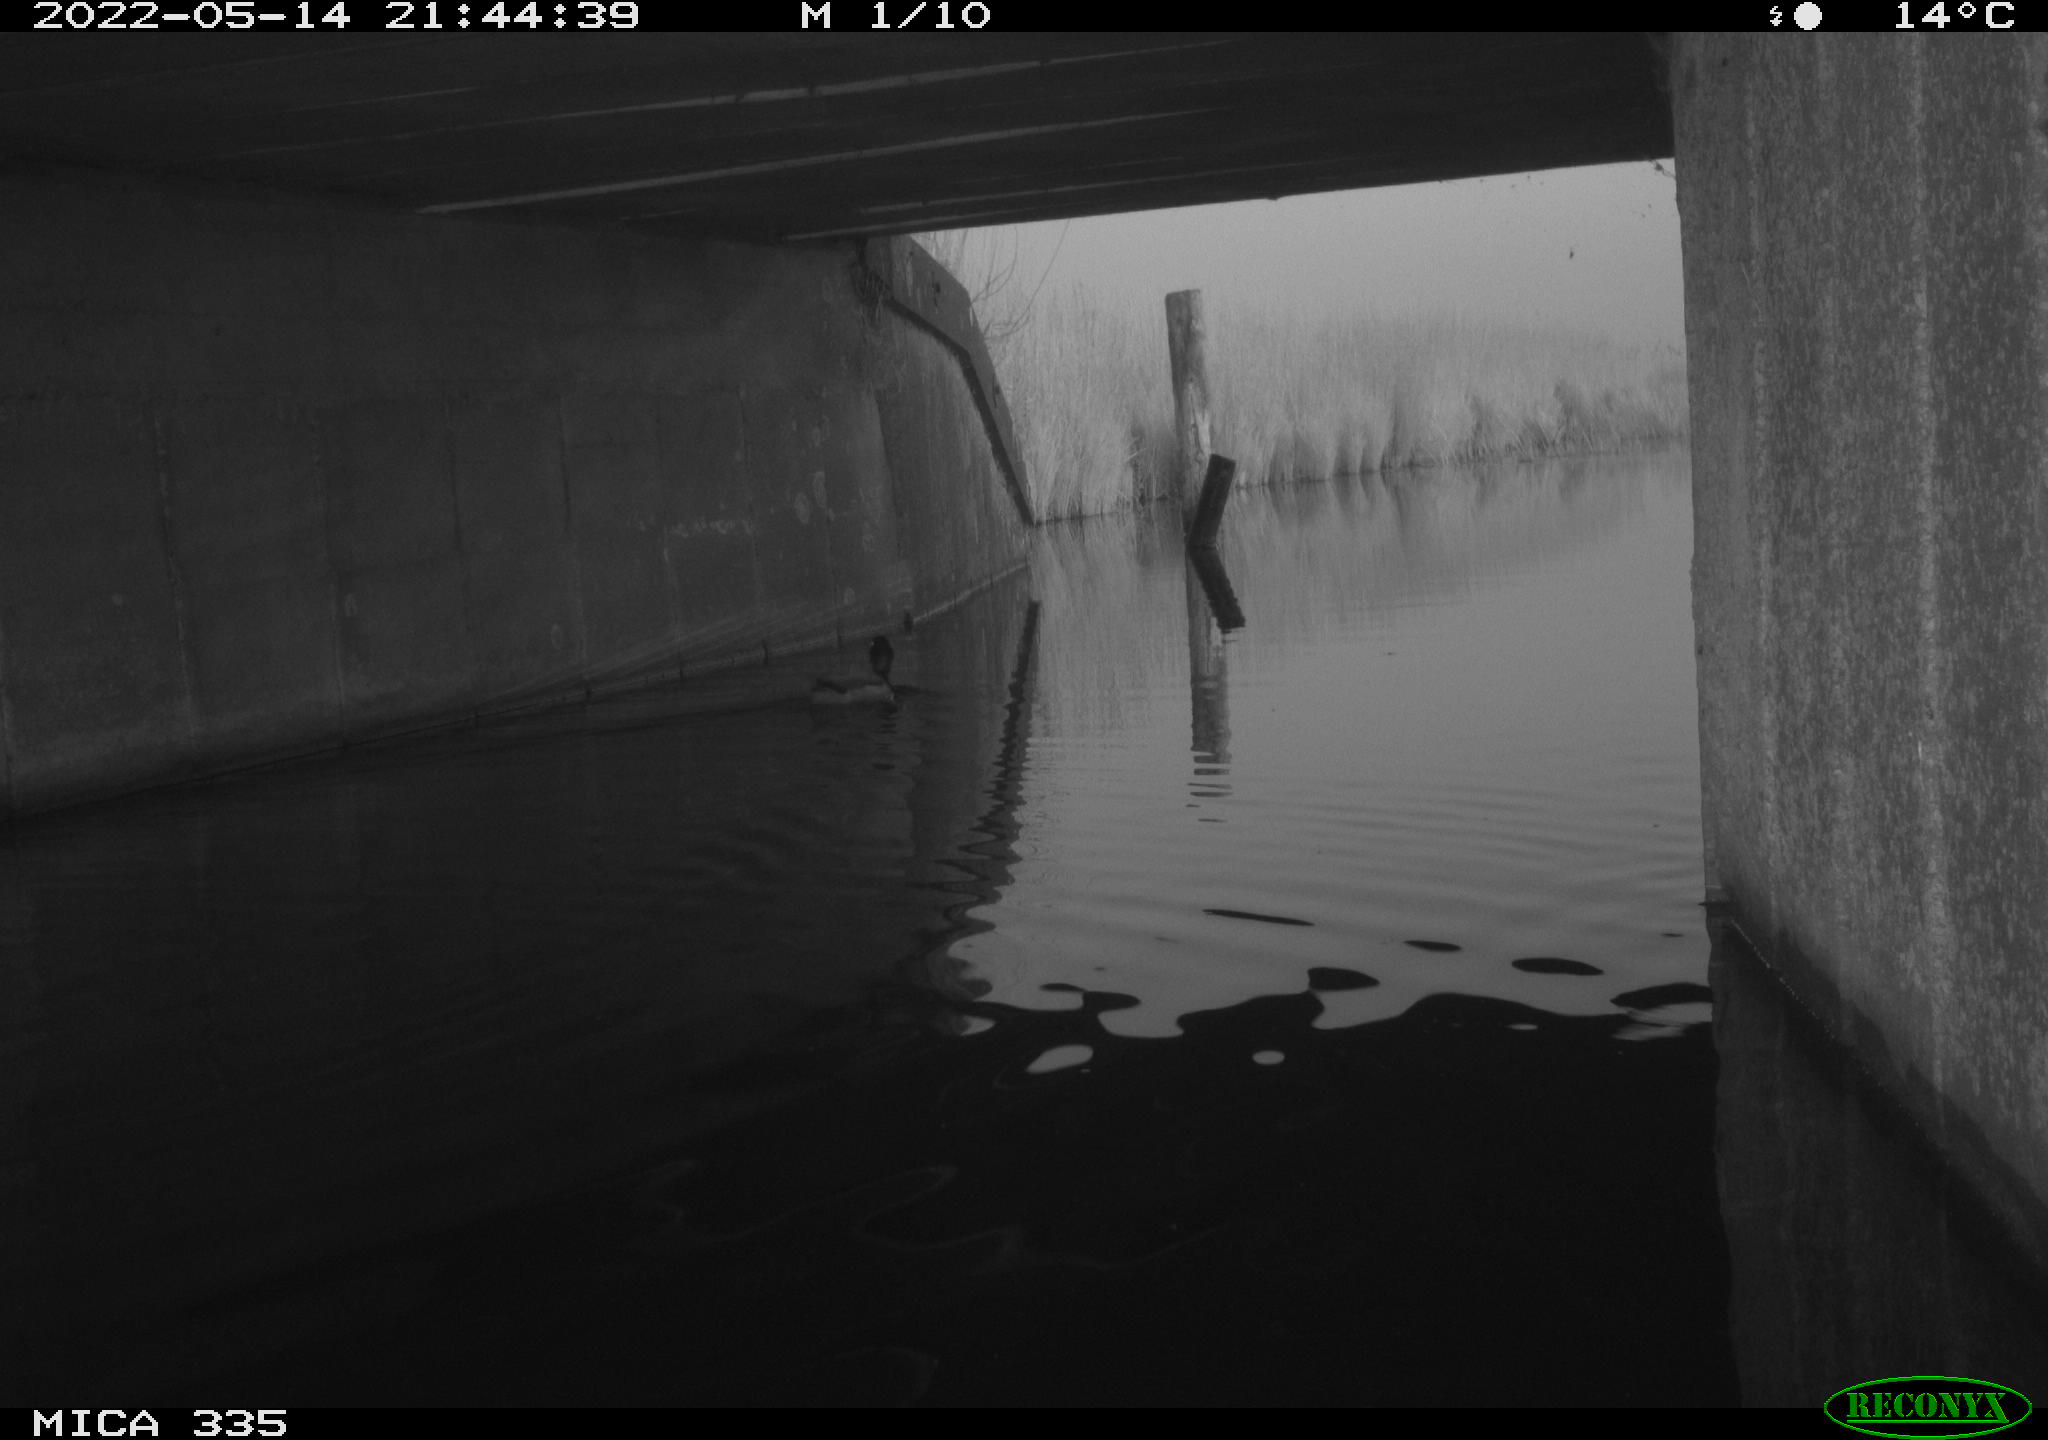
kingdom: Animalia
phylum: Chordata
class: Aves
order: Anseriformes
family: Anatidae
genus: Anas
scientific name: Anas platyrhynchos
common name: Mallard
